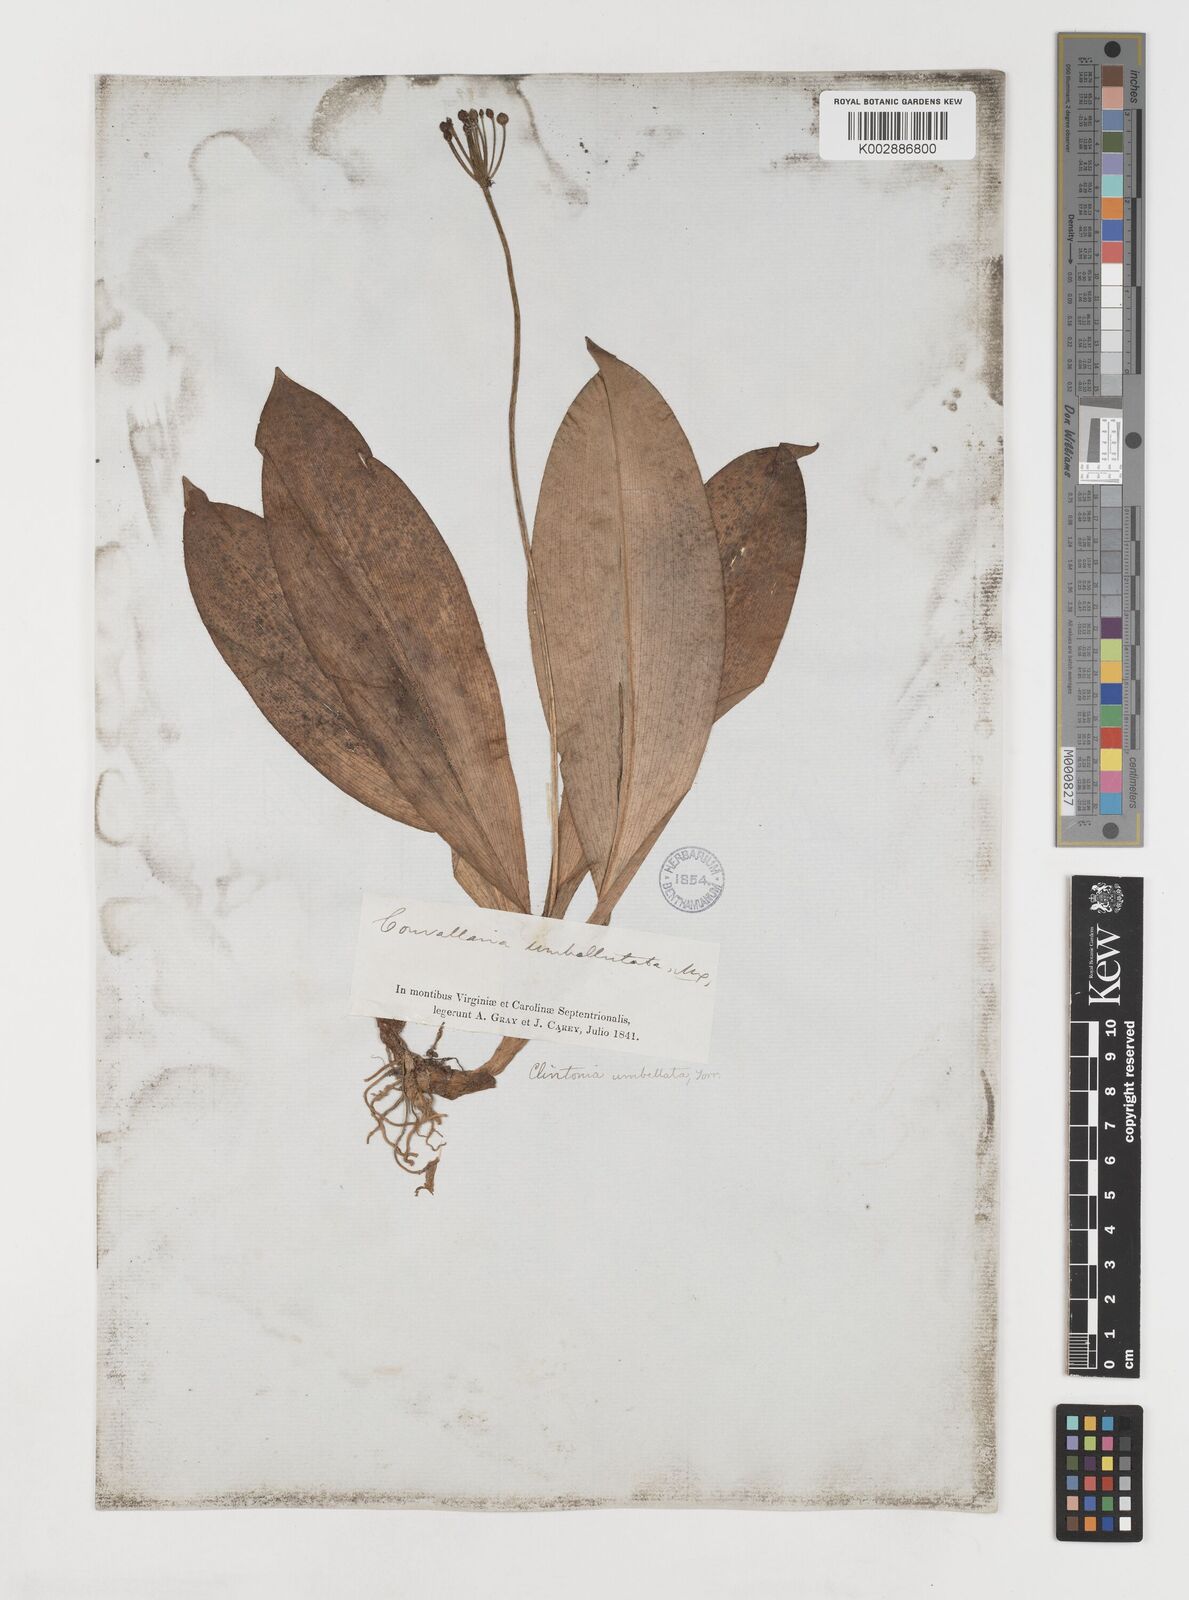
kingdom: Plantae
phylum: Tracheophyta
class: Liliopsida
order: Liliales
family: Liliaceae
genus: Clintonia
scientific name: Clintonia umbellulata
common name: Speckle wood-lily
